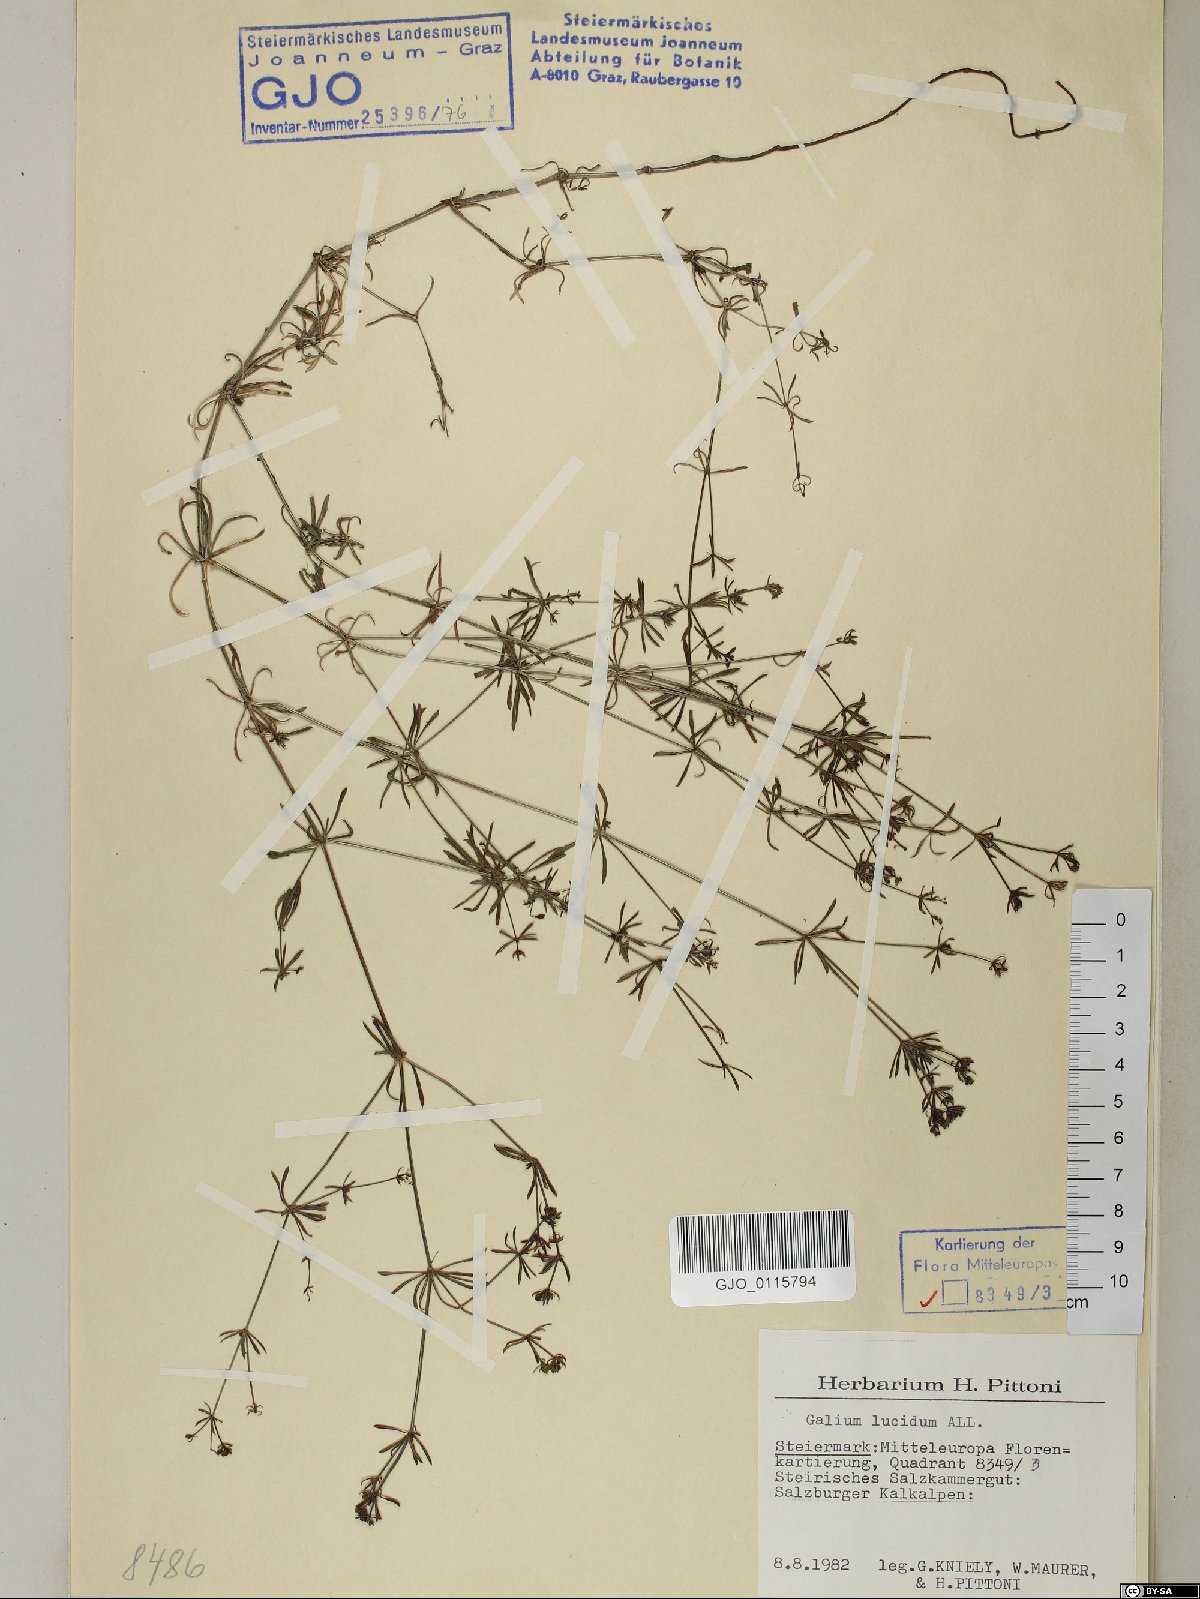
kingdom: Plantae
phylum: Tracheophyta
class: Magnoliopsida
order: Gentianales
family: Rubiaceae
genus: Galium
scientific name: Galium lucidum
